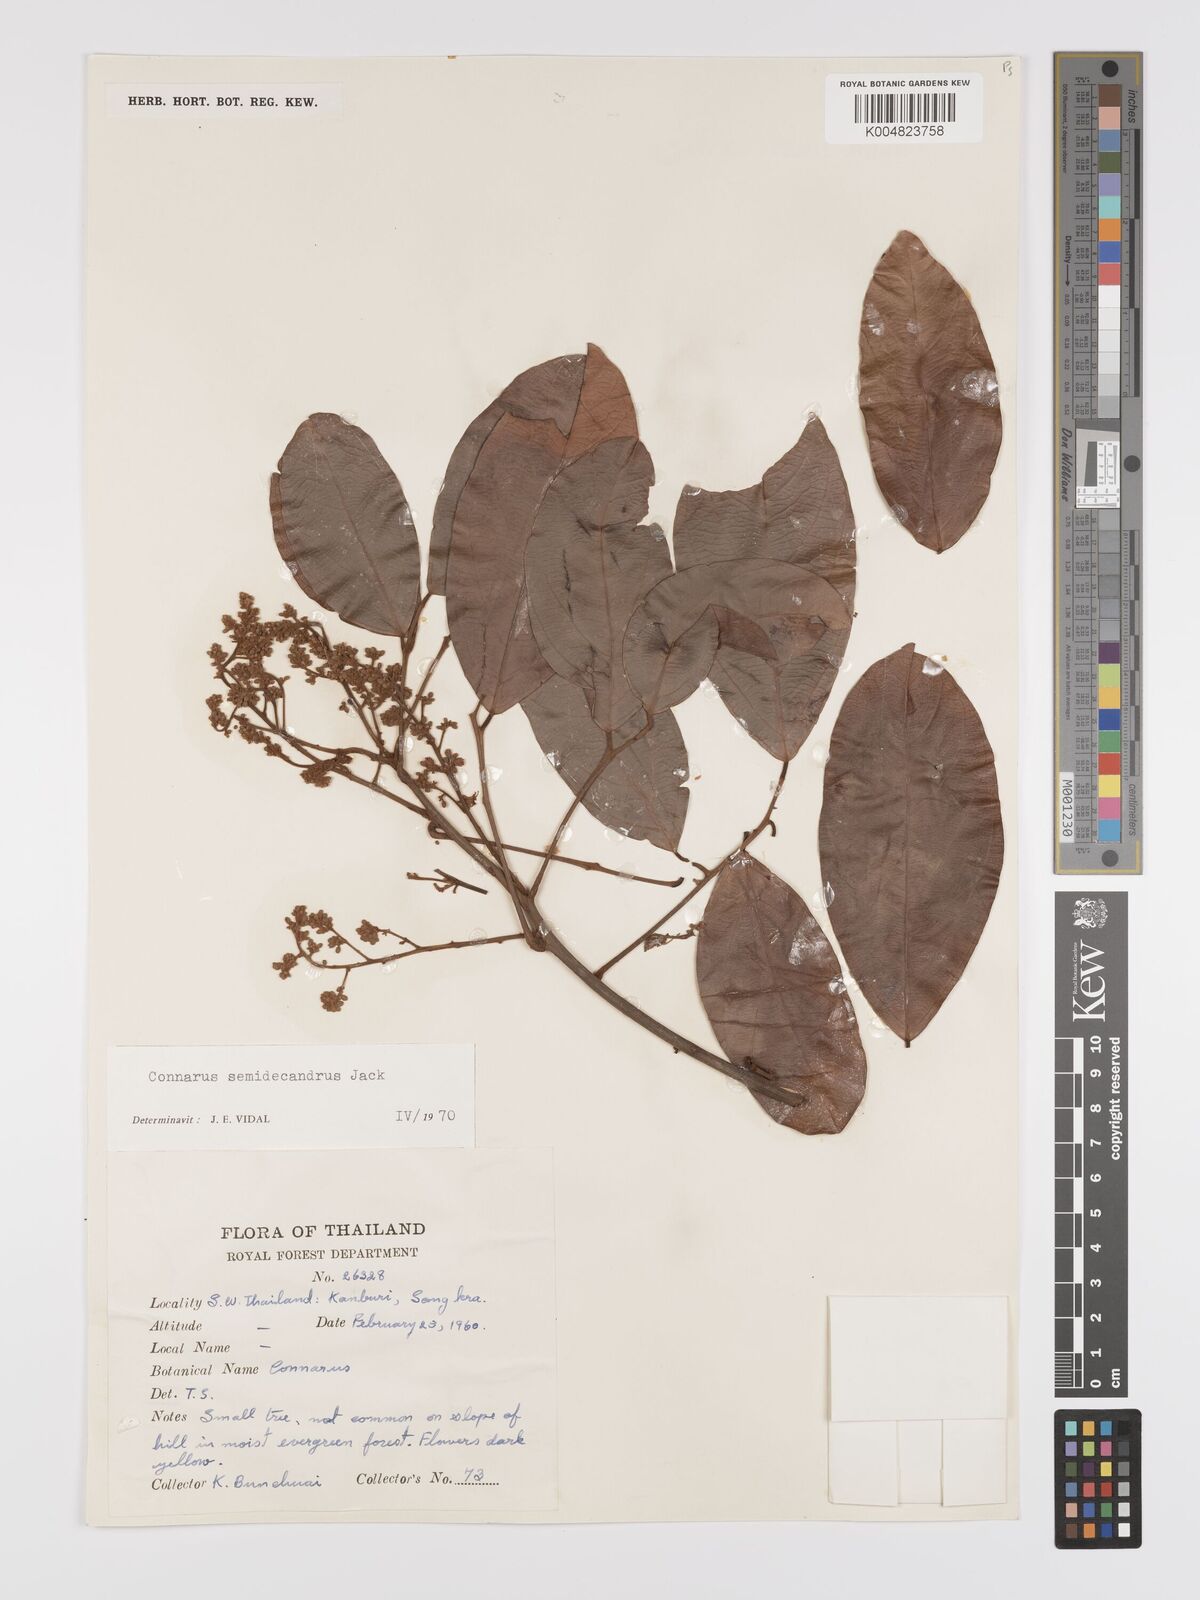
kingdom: Plantae
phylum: Tracheophyta
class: Magnoliopsida
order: Oxalidales
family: Connaraceae
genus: Connarus
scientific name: Connarus semidecandrus
